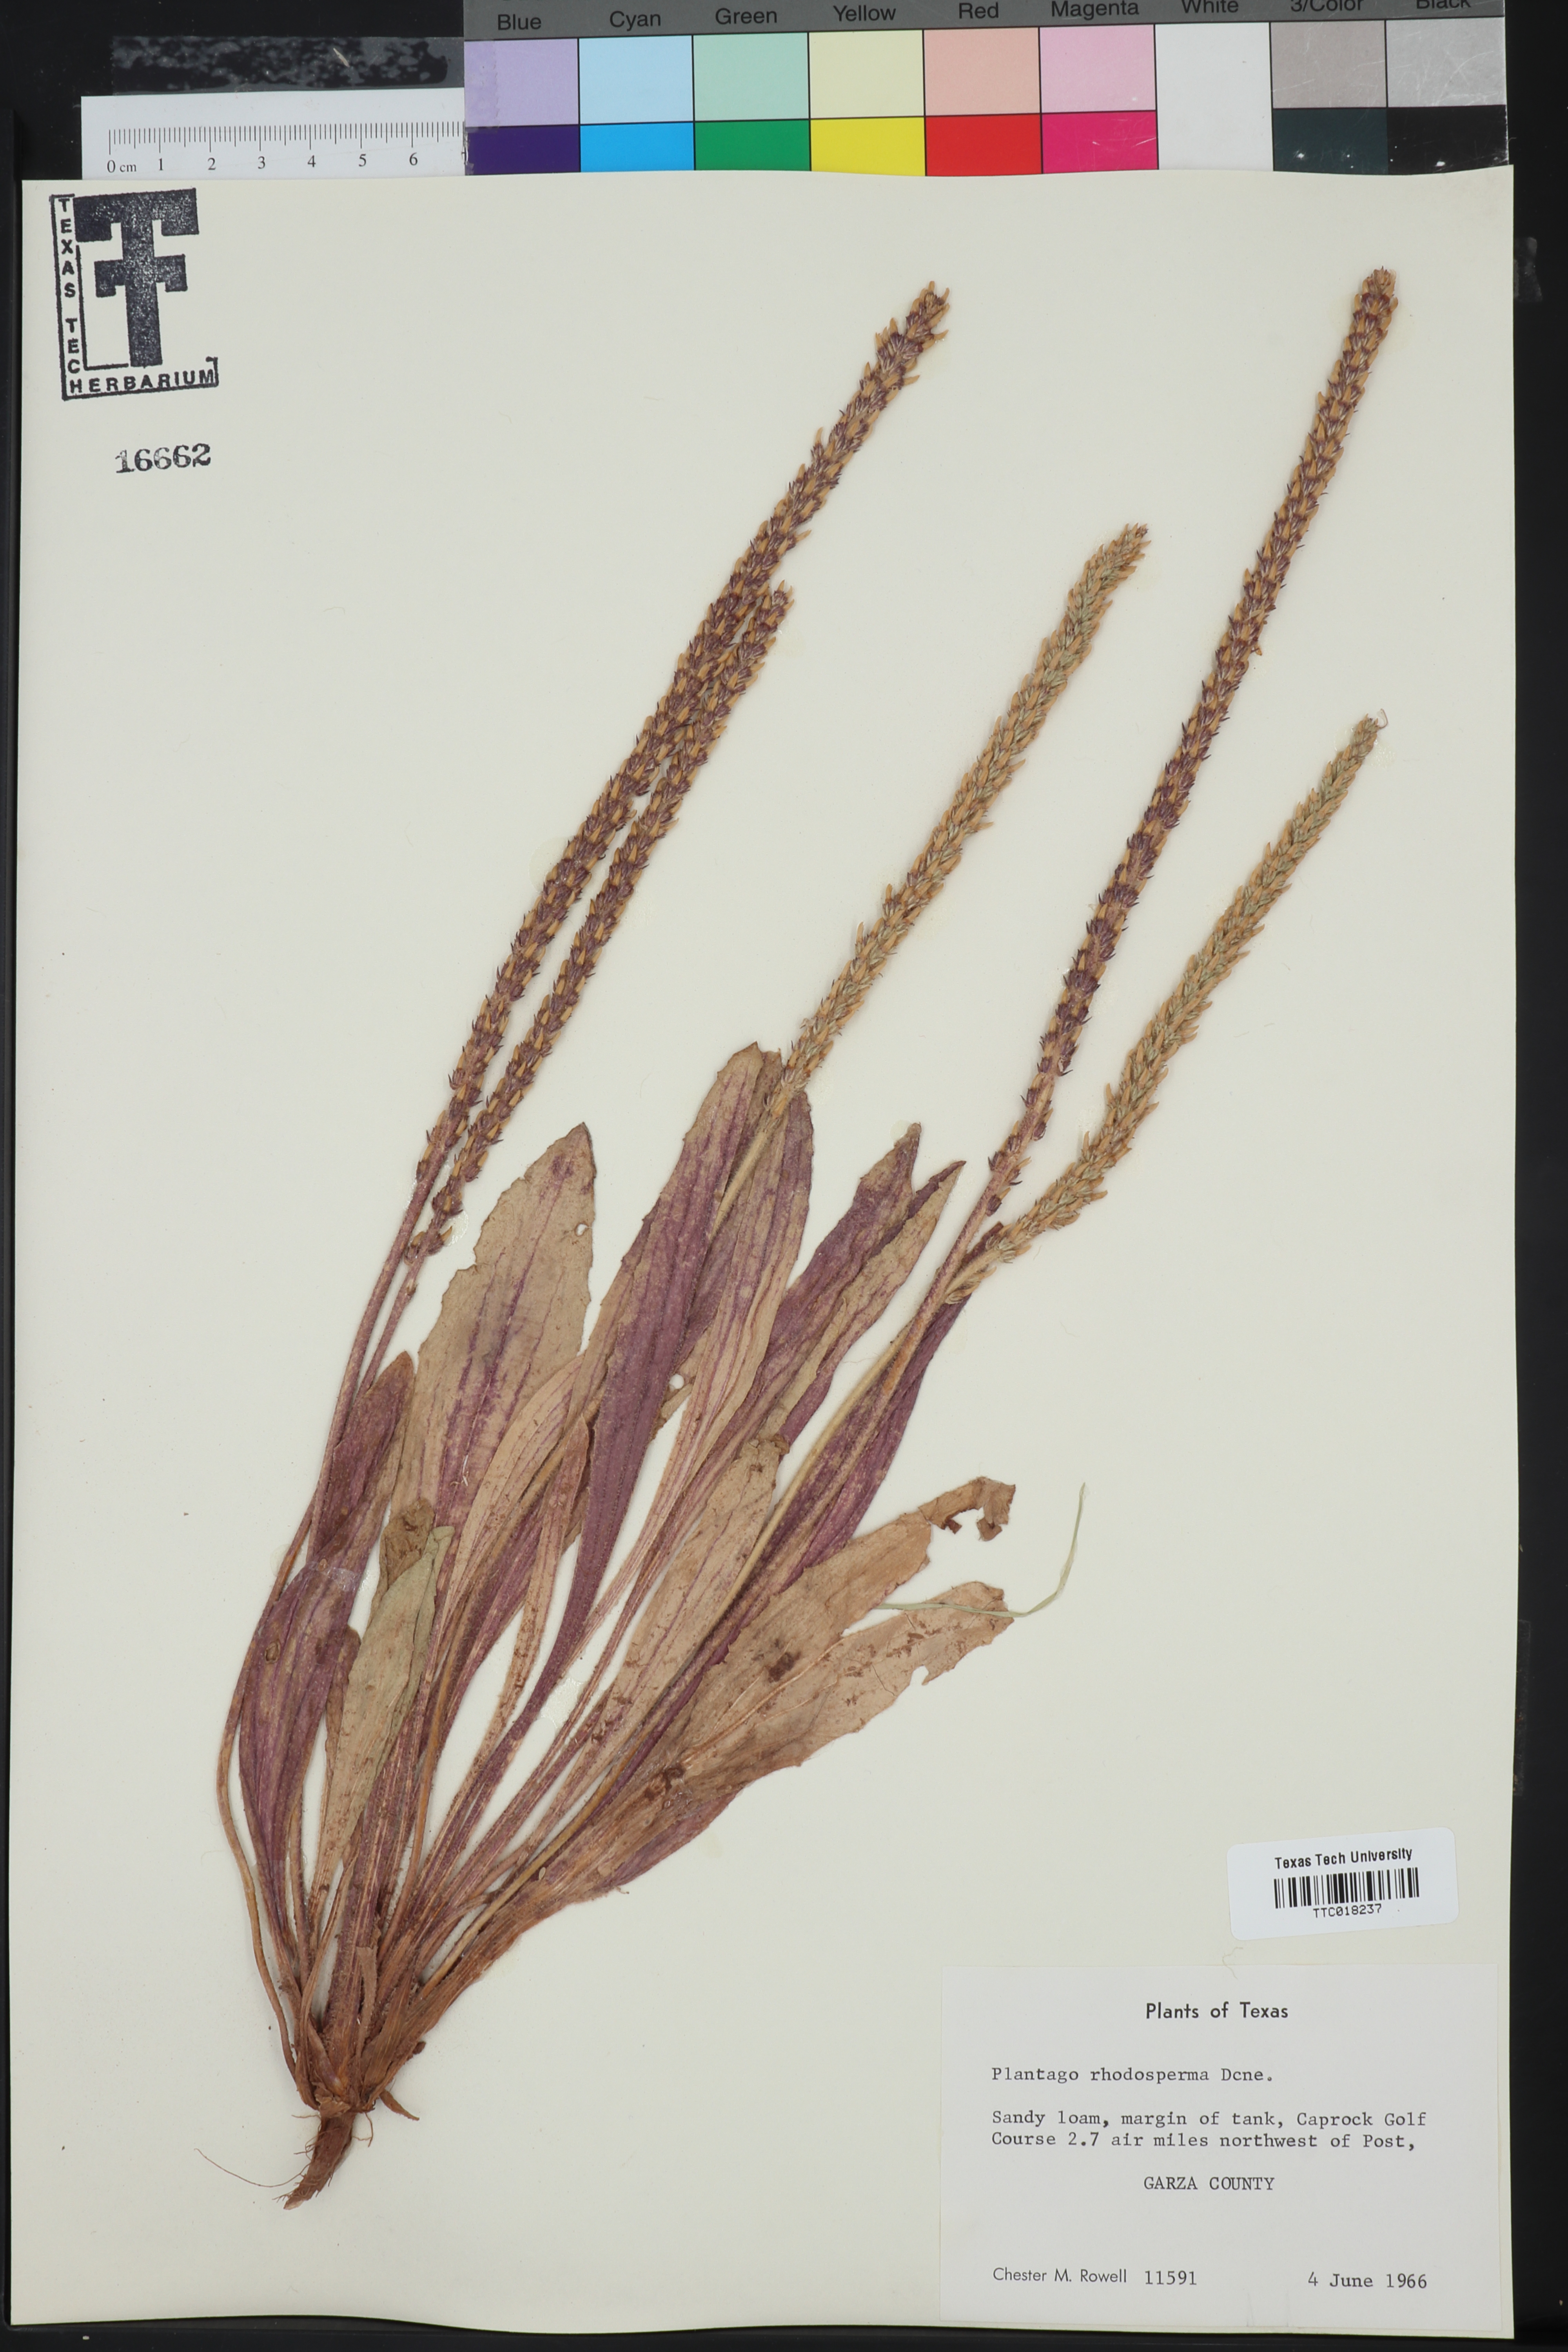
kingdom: Plantae
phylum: Tracheophyta
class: Magnoliopsida
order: Lamiales
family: Plantaginaceae
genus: Plantago
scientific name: Plantago rhodosperma
